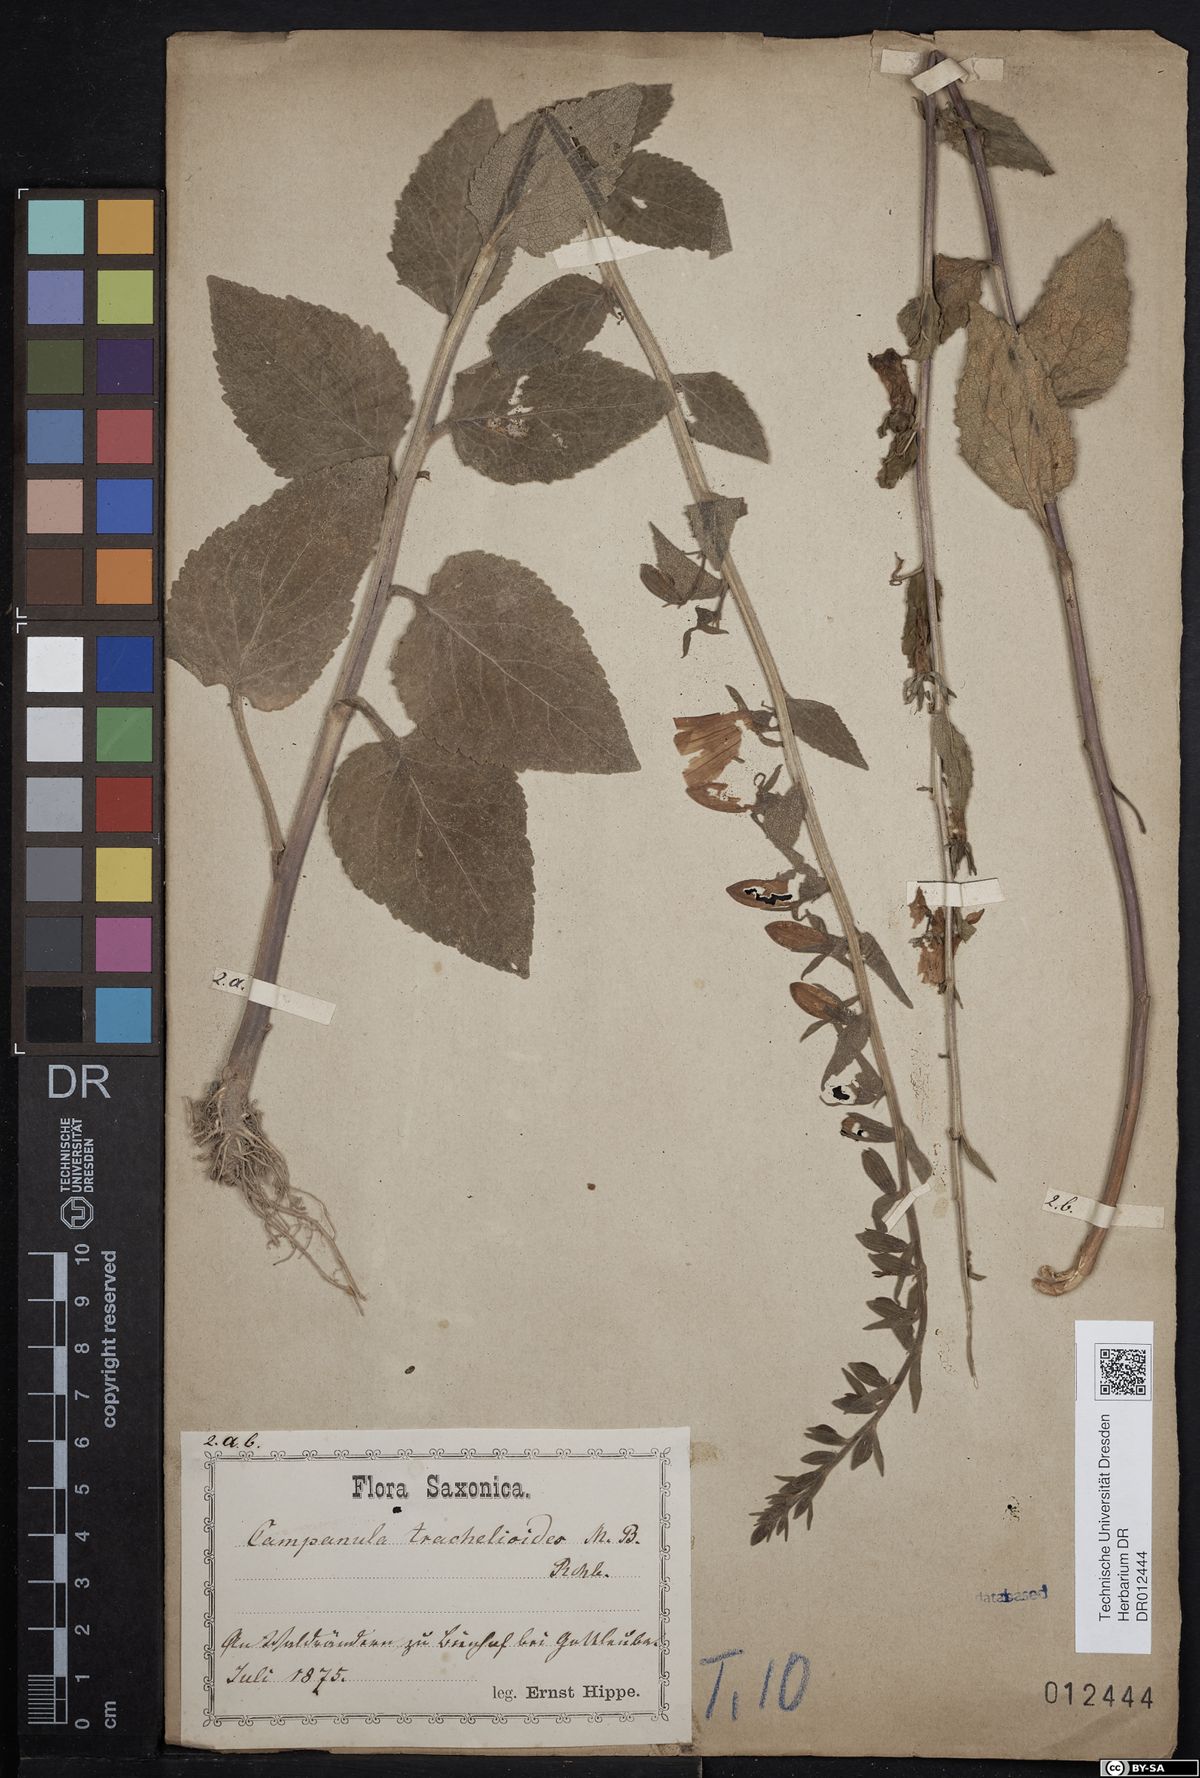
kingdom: Plantae
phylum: Tracheophyta
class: Magnoliopsida
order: Asterales
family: Campanulaceae
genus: Campanula
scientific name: Campanula rapunculoides
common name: Creeping bellflower
